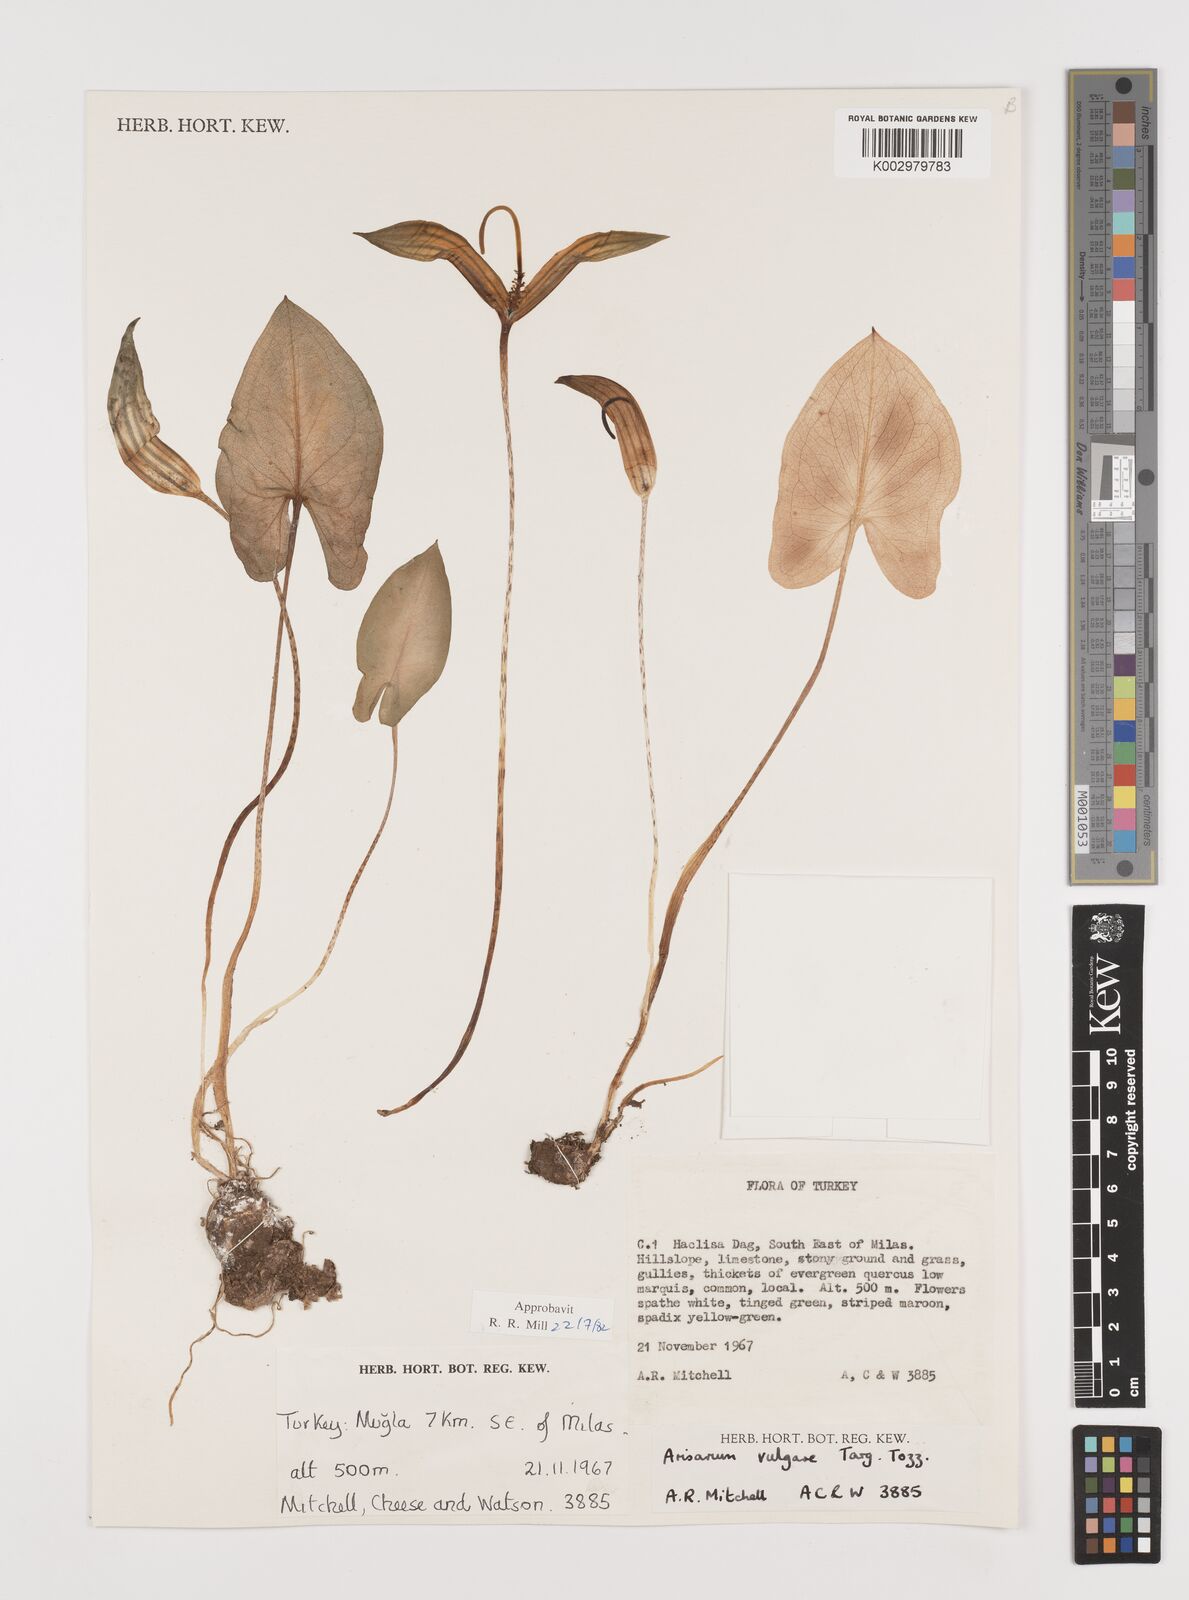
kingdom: Plantae
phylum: Tracheophyta
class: Liliopsida
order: Alismatales
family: Araceae
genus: Arisarum
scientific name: Arisarum vulgare
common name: Common arisarum
